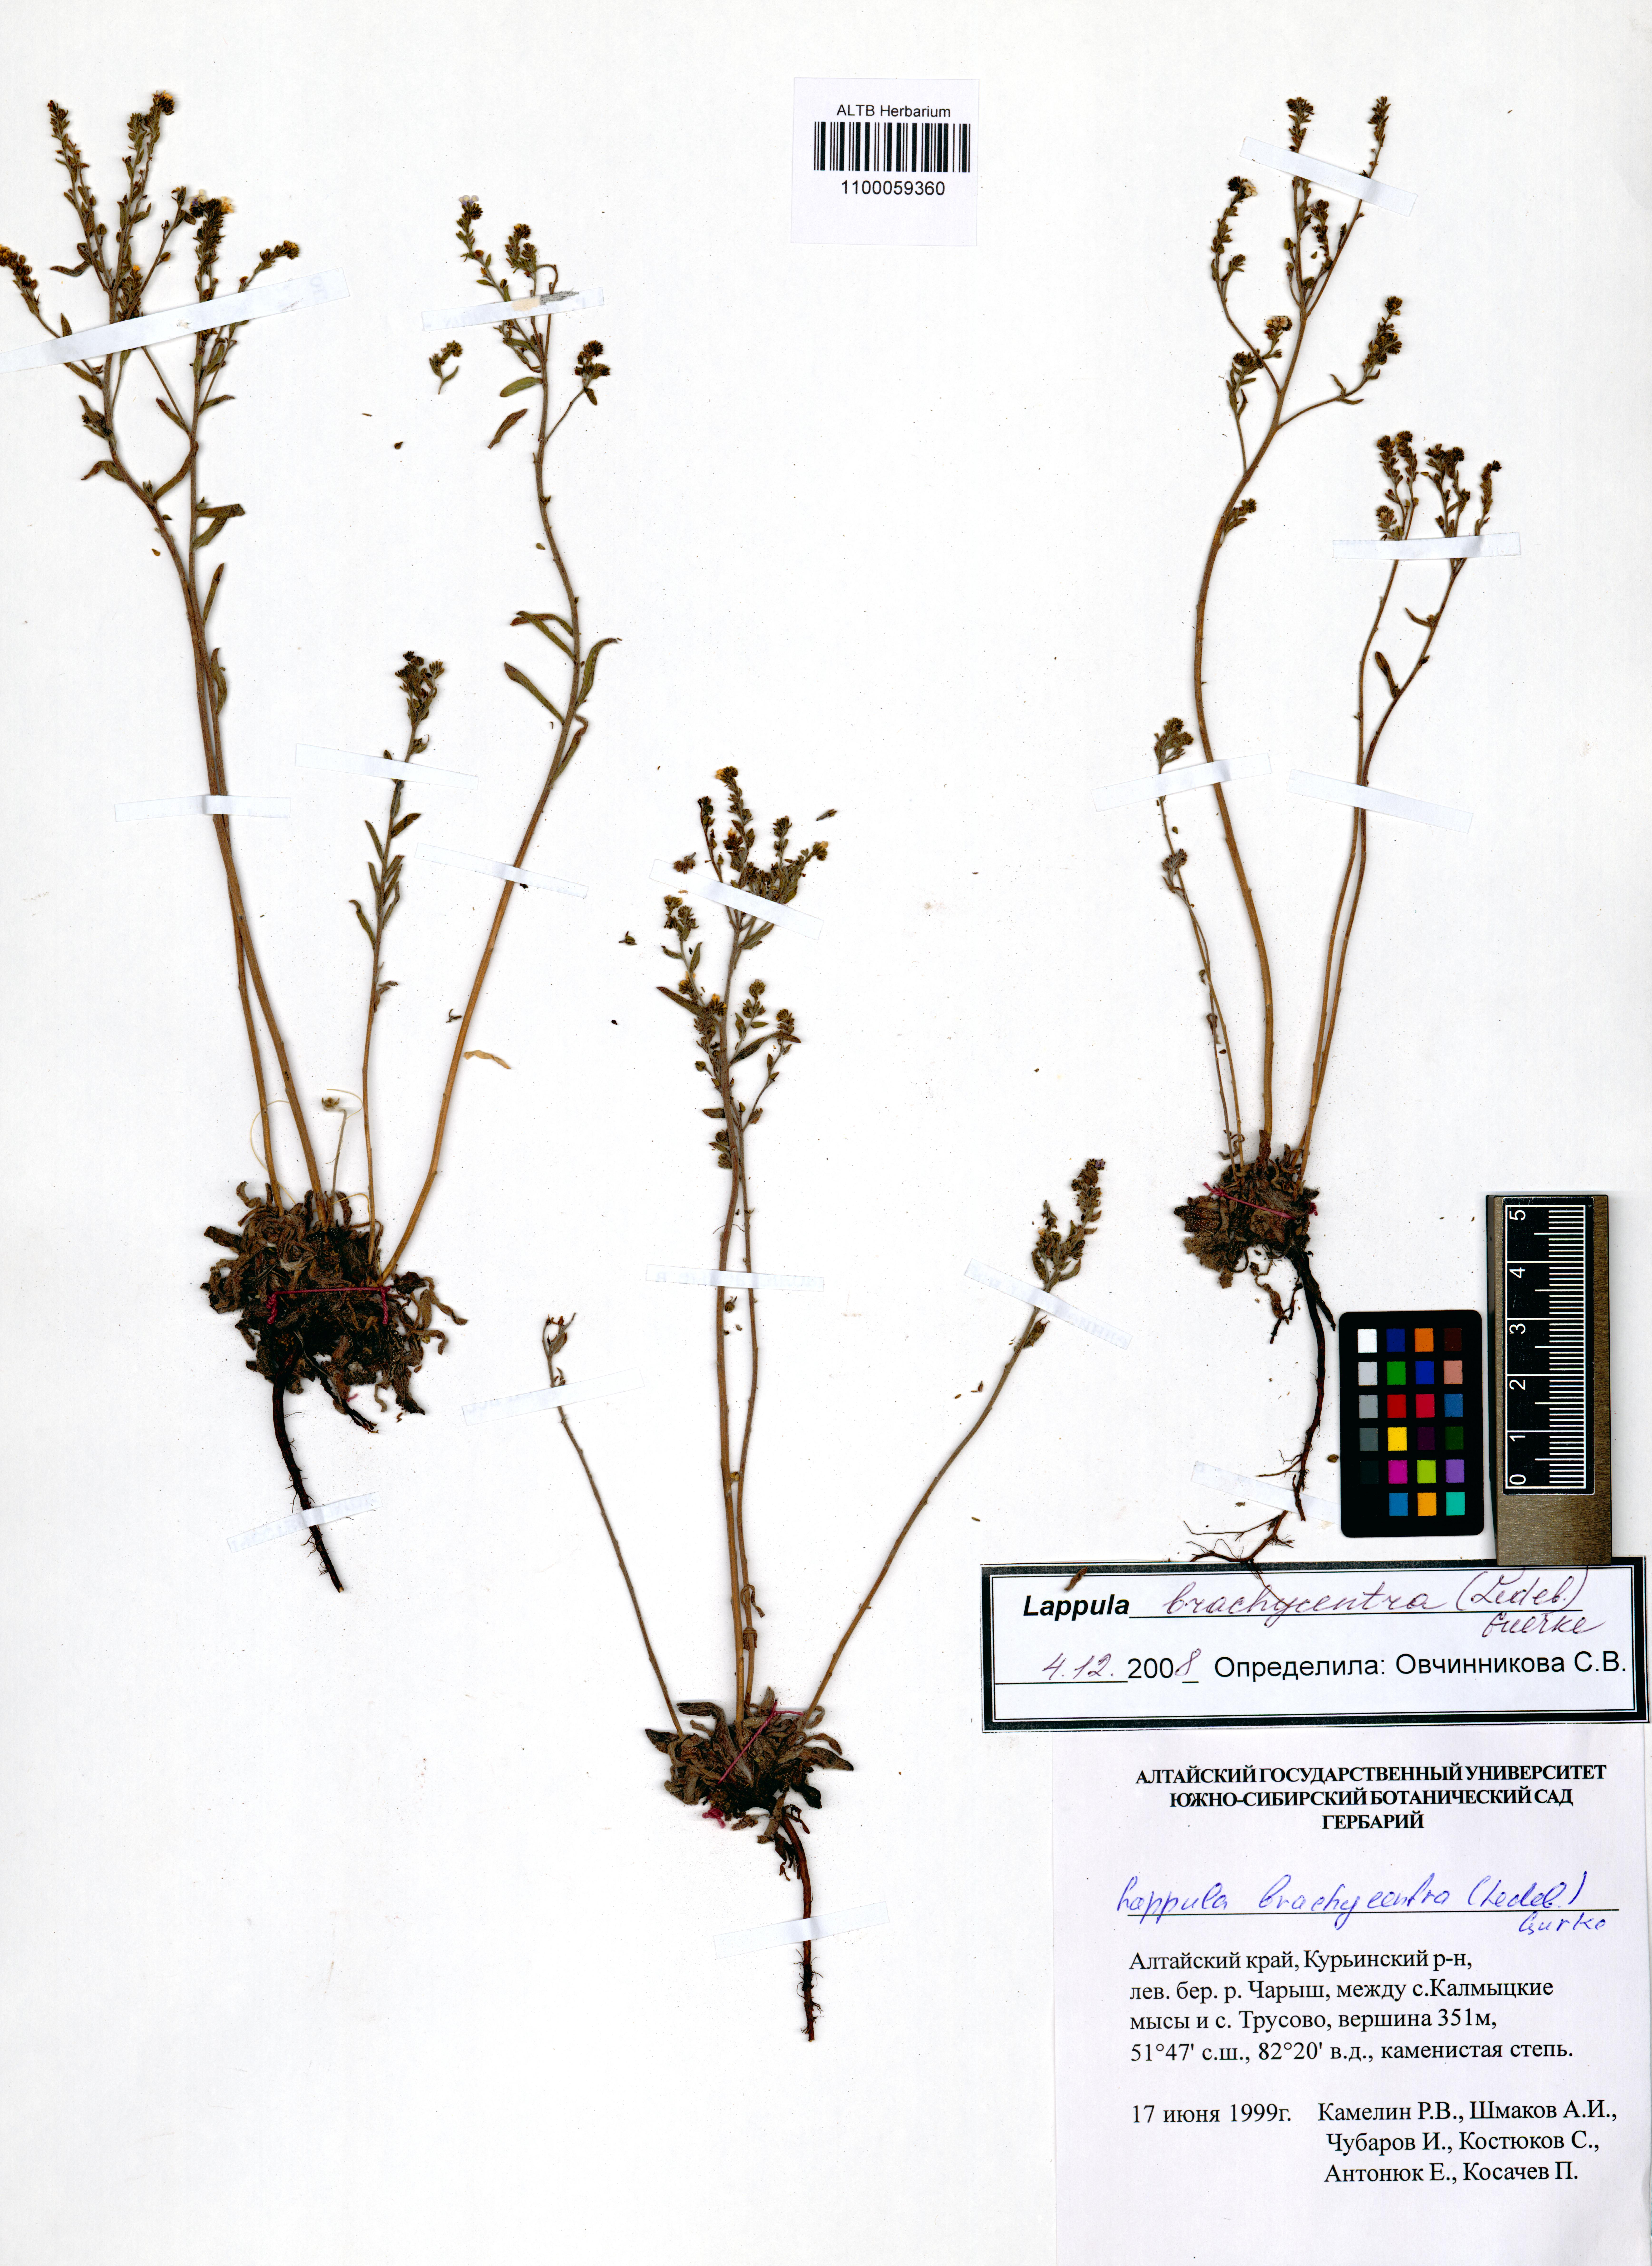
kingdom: Plantae
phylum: Tracheophyta
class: Magnoliopsida
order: Boraginales
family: Boraginaceae
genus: Lappula
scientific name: Lappula brachycentra
